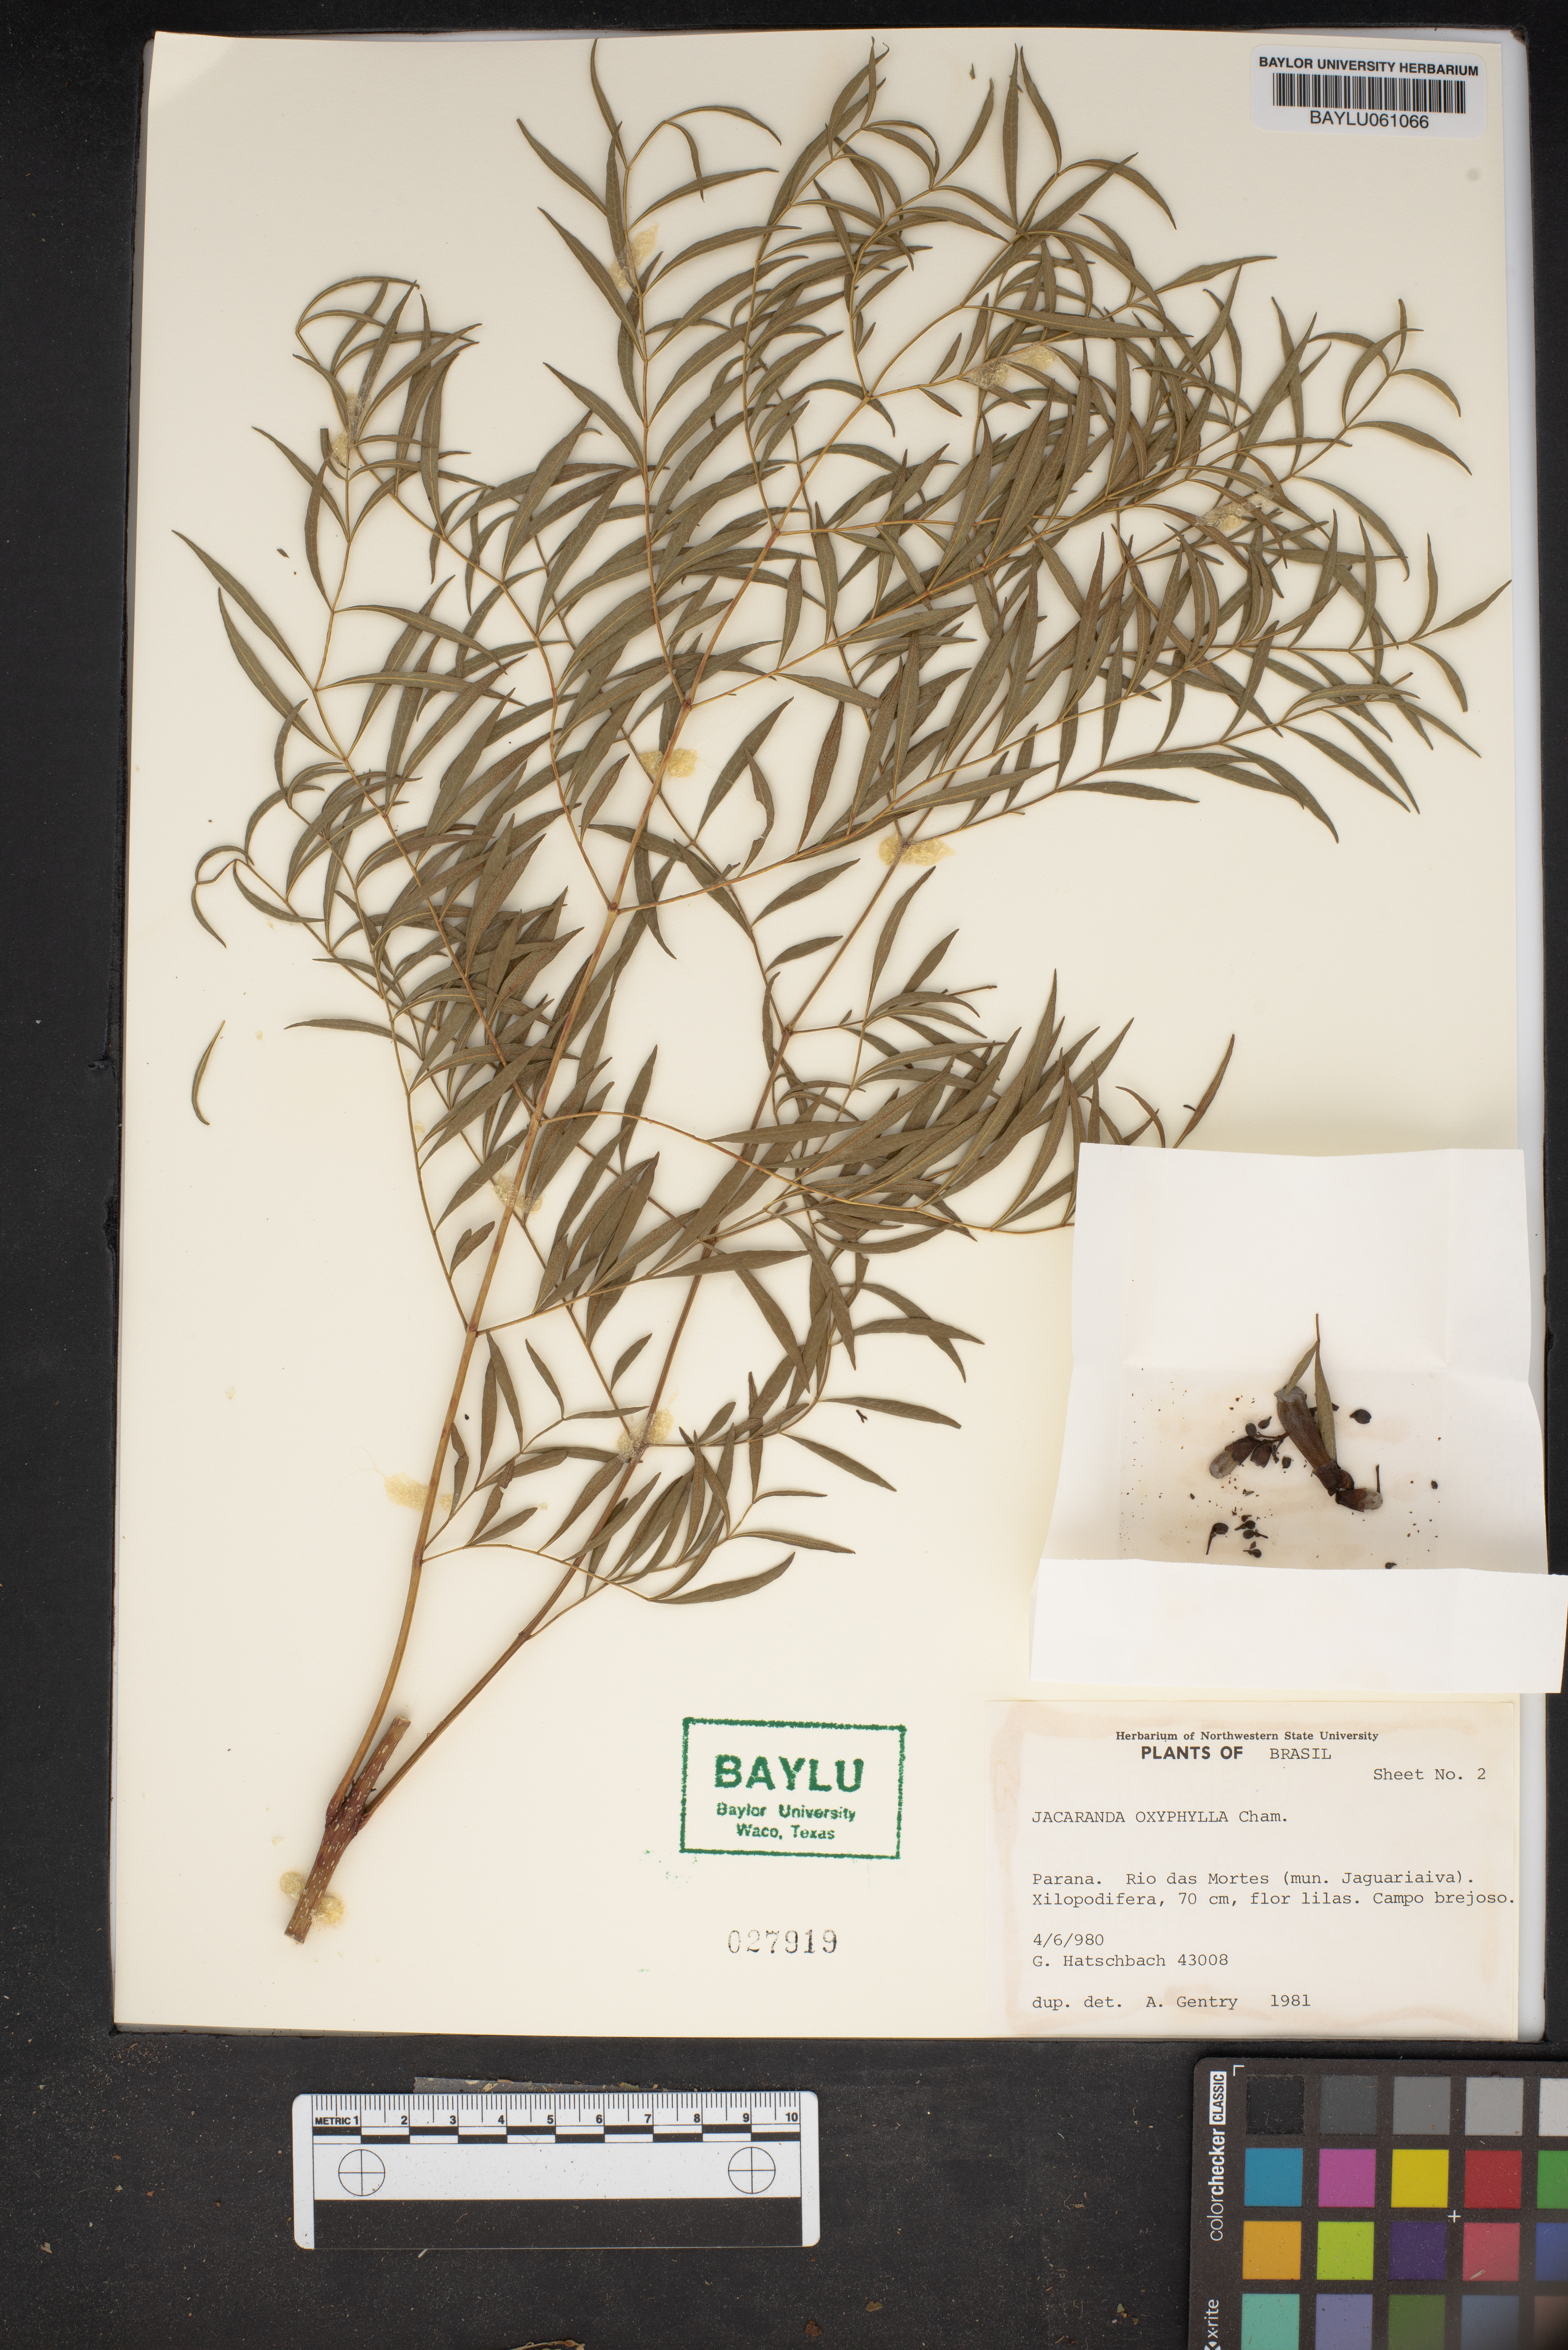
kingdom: Plantae
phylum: Tracheophyta
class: Magnoliopsida
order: Lamiales
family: Bignoniaceae
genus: Jacaranda
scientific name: Jacaranda caroba
